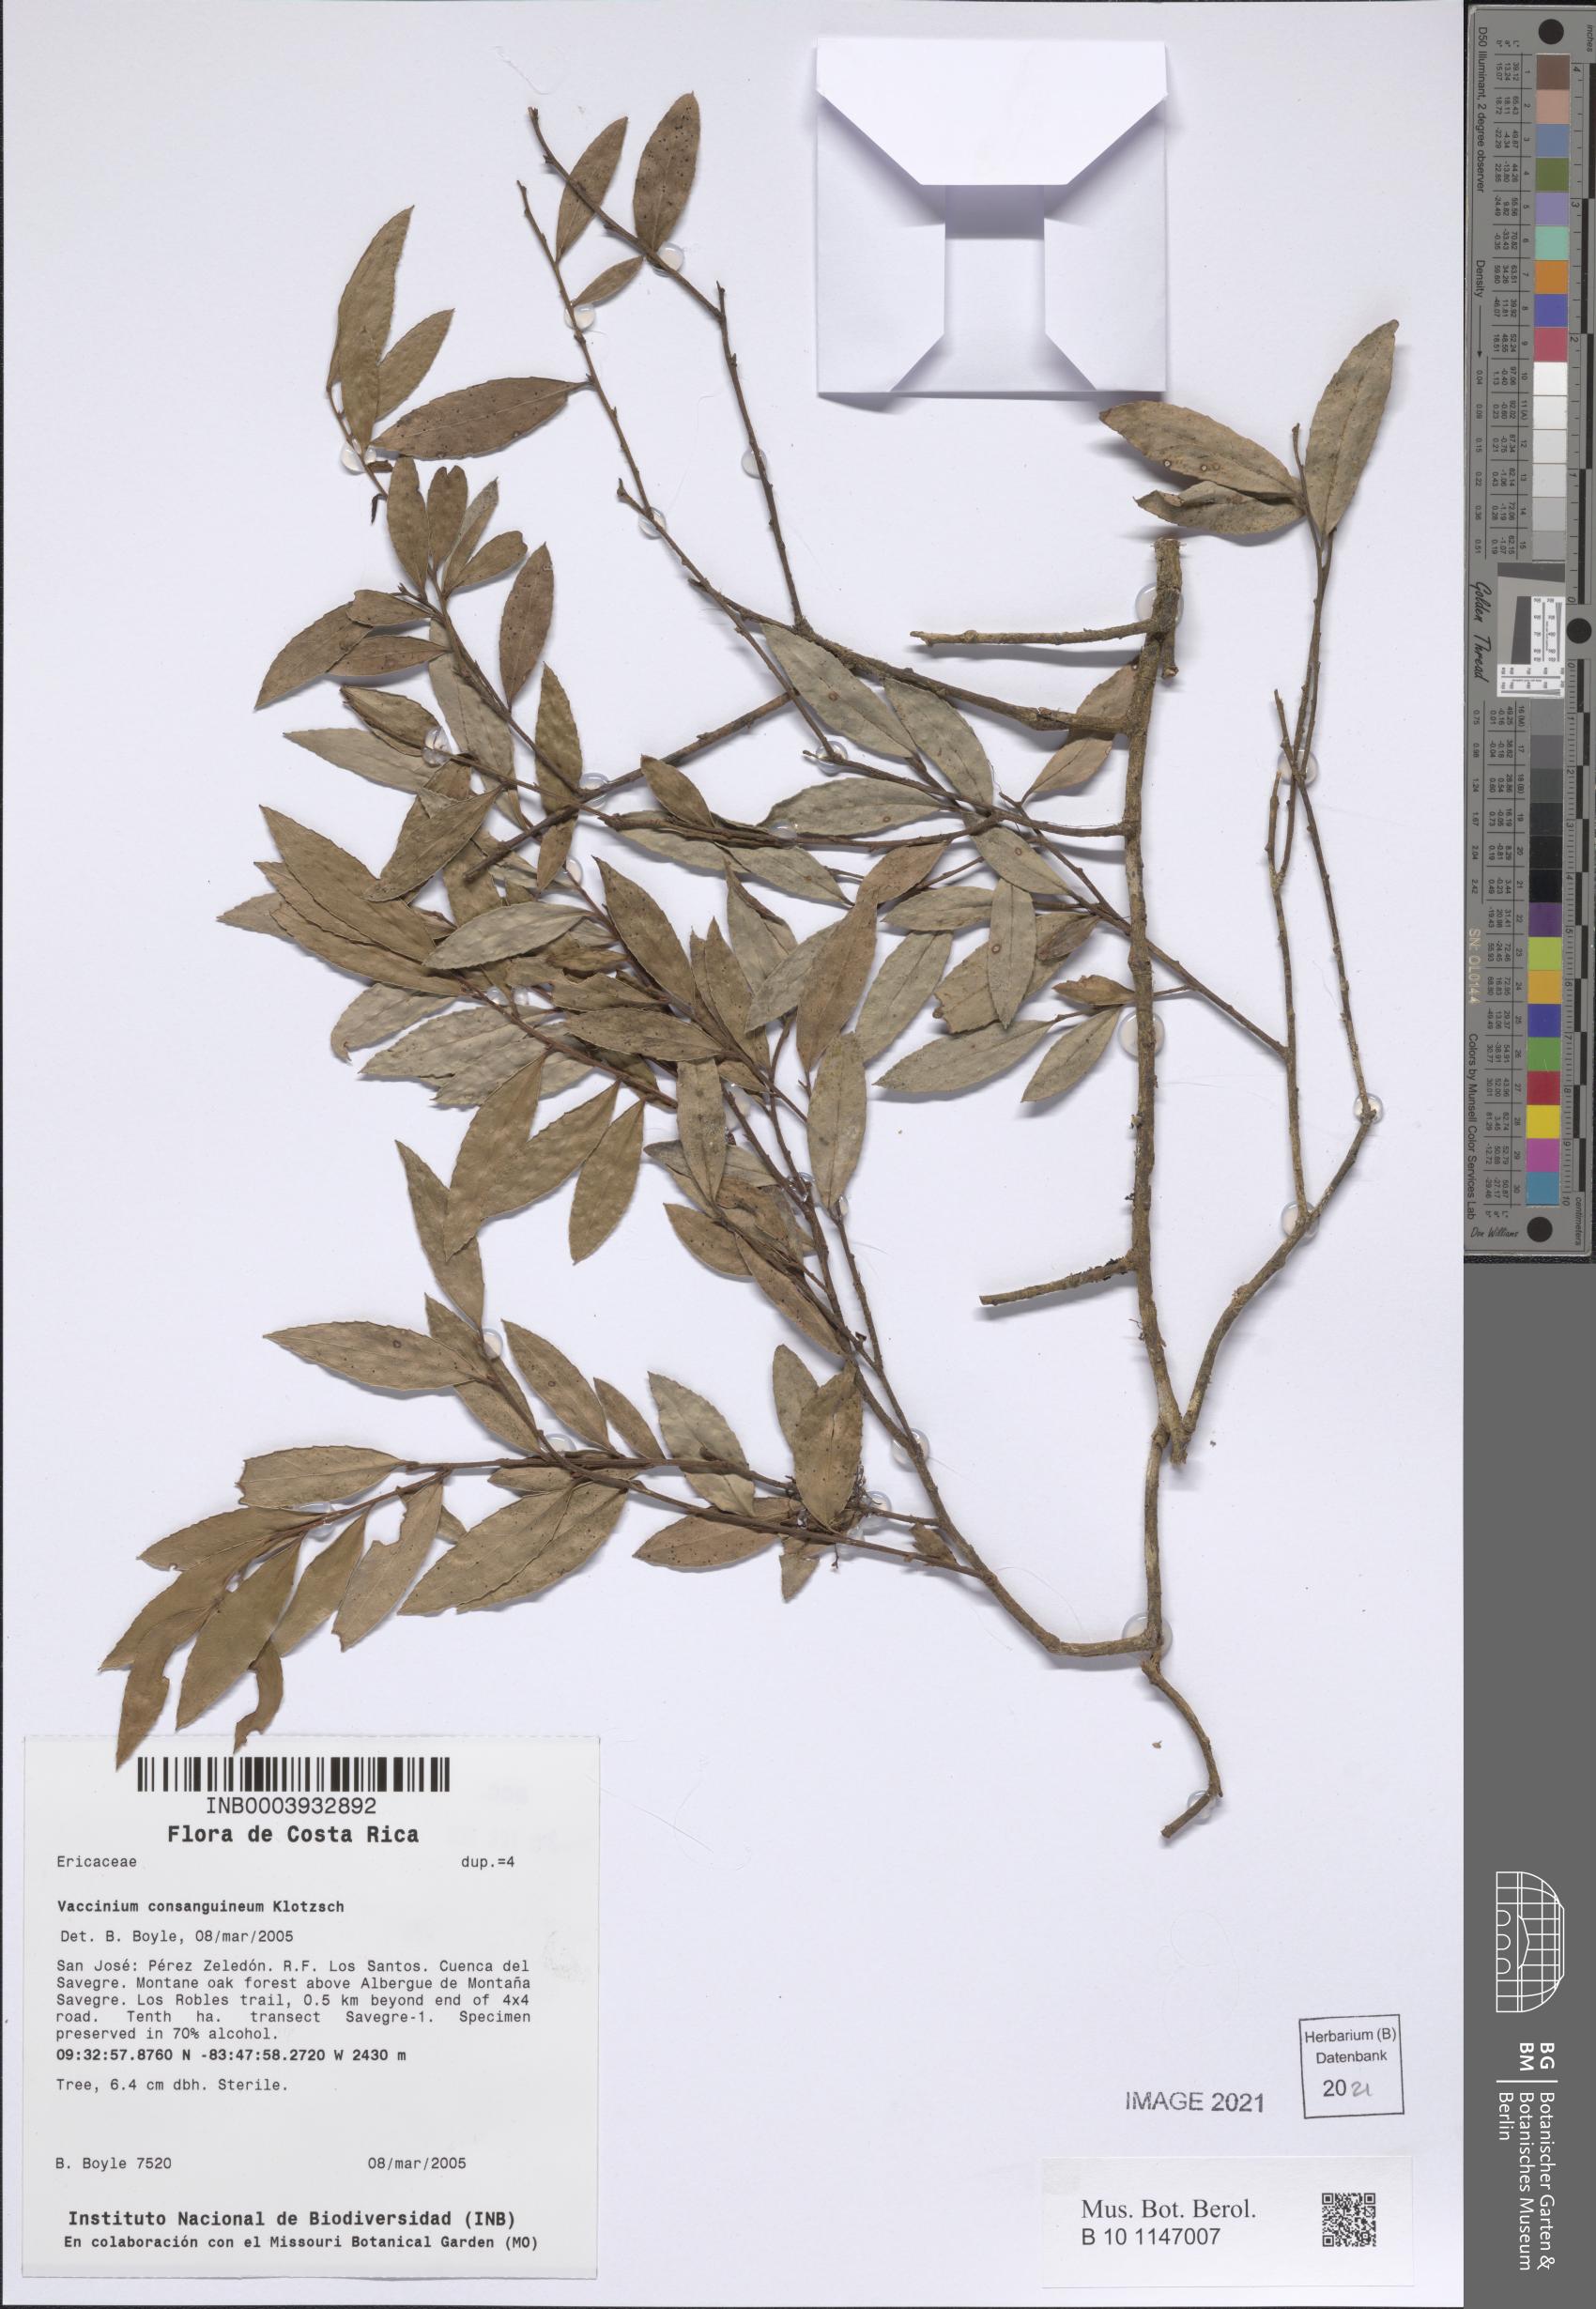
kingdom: Plantae
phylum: Tracheophyta
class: Magnoliopsida
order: Ericales
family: Ericaceae
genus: Vaccinium
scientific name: Vaccinium consanguineum
